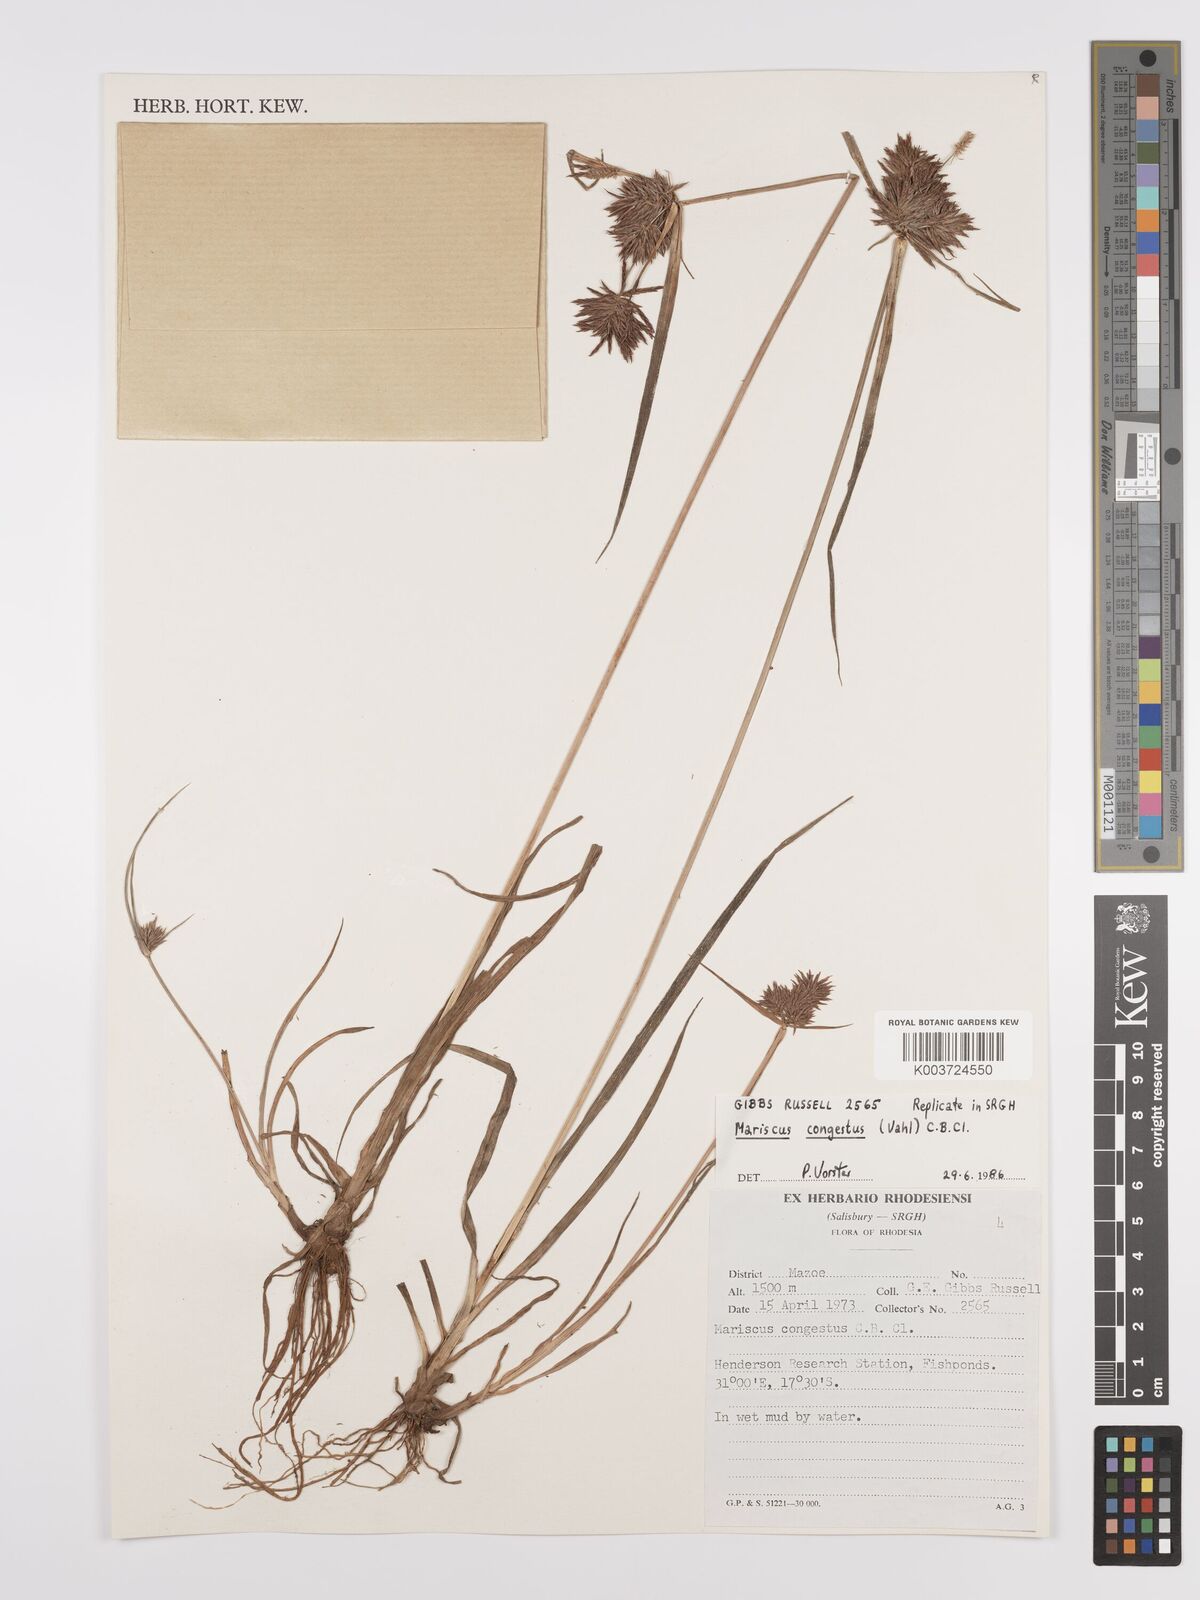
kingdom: Plantae
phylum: Tracheophyta
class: Liliopsida
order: Poales
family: Cyperaceae
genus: Cyperus
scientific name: Cyperus congestus
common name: Dense flat sedge
